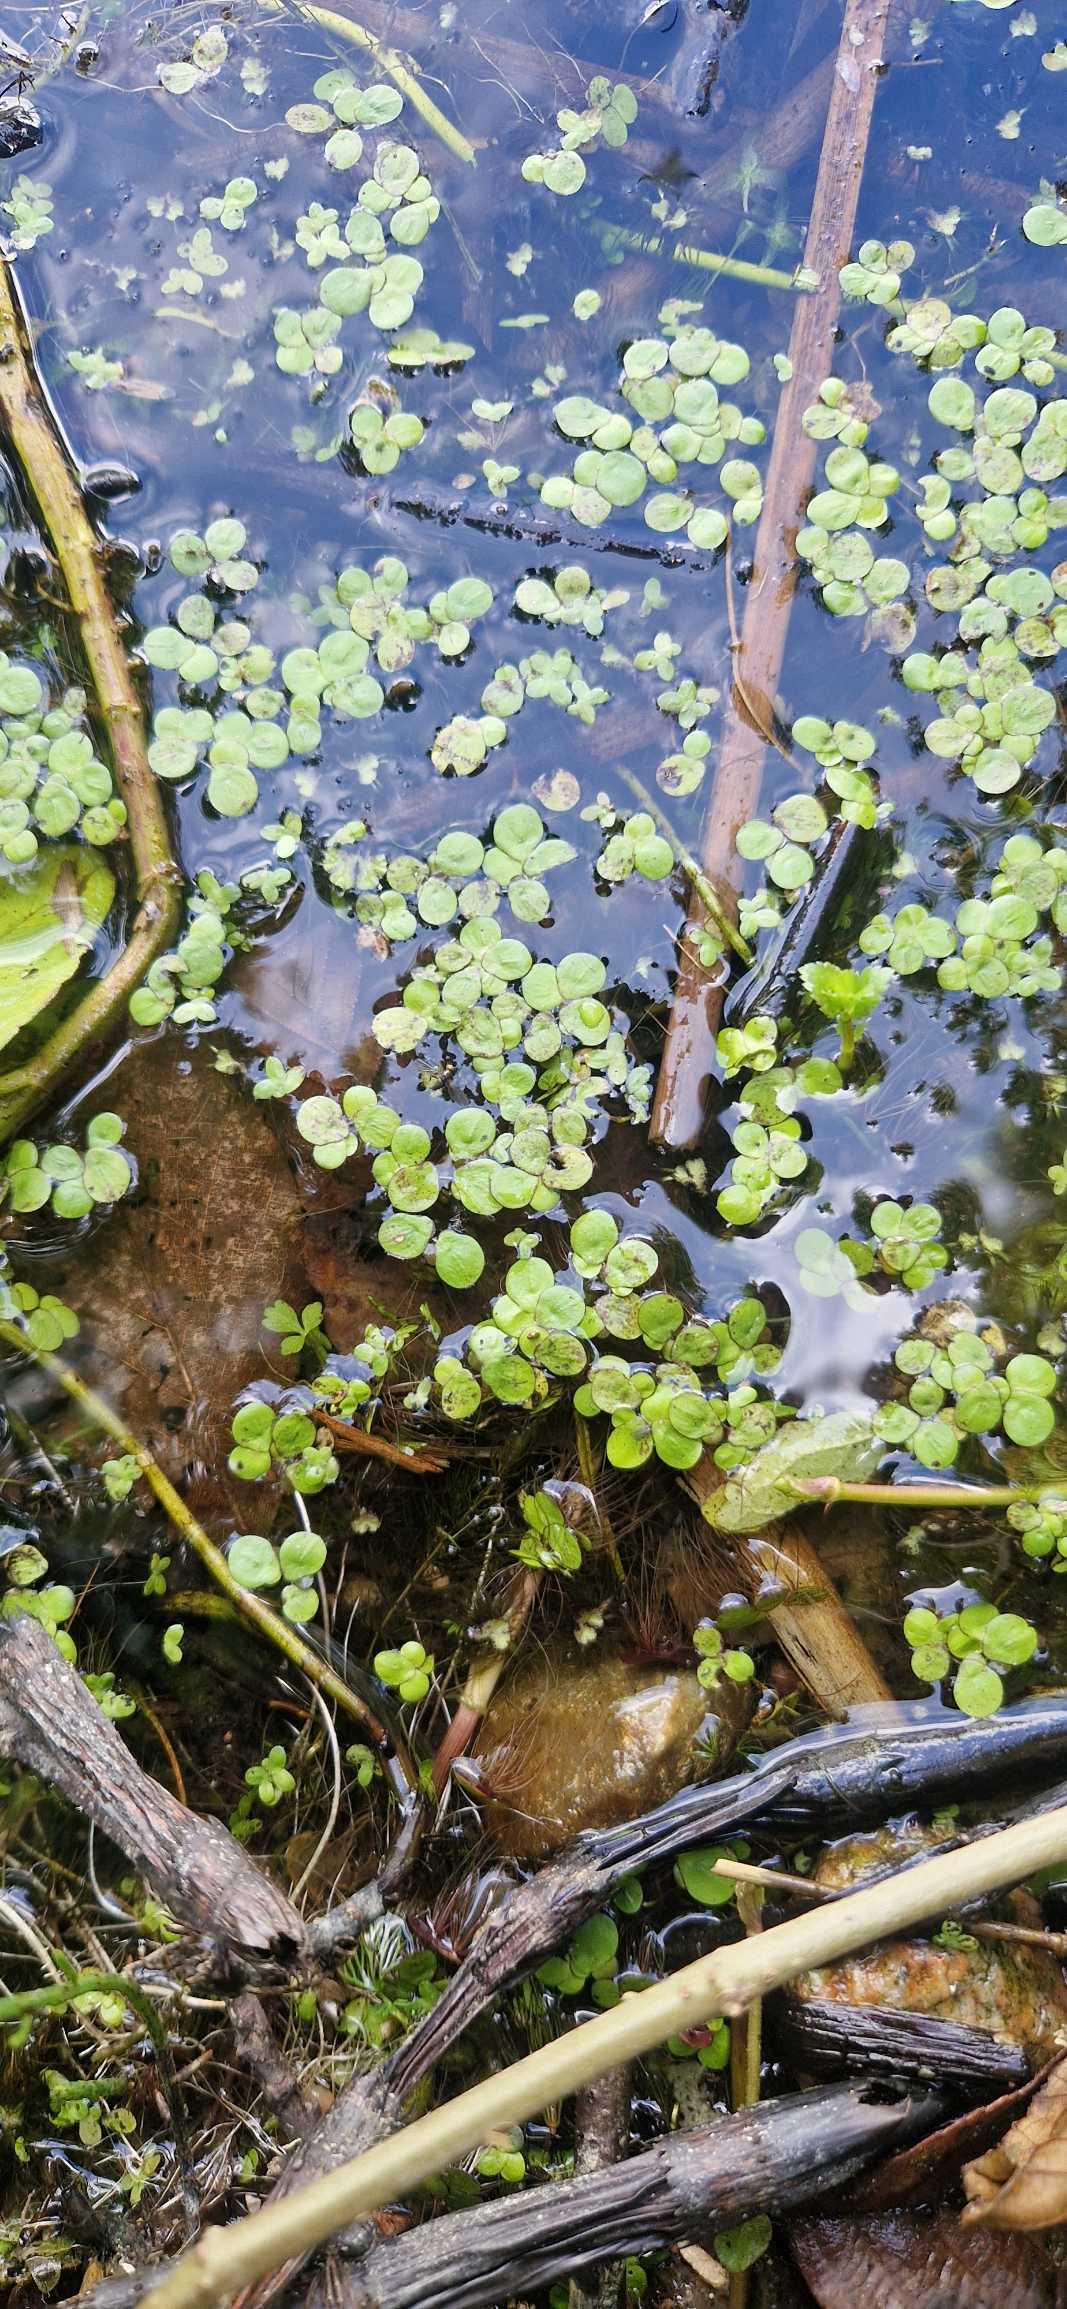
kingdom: Plantae
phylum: Tracheophyta
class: Liliopsida
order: Alismatales
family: Araceae
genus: Spirodela
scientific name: Spirodela polyrhiza
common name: Stor andemad
